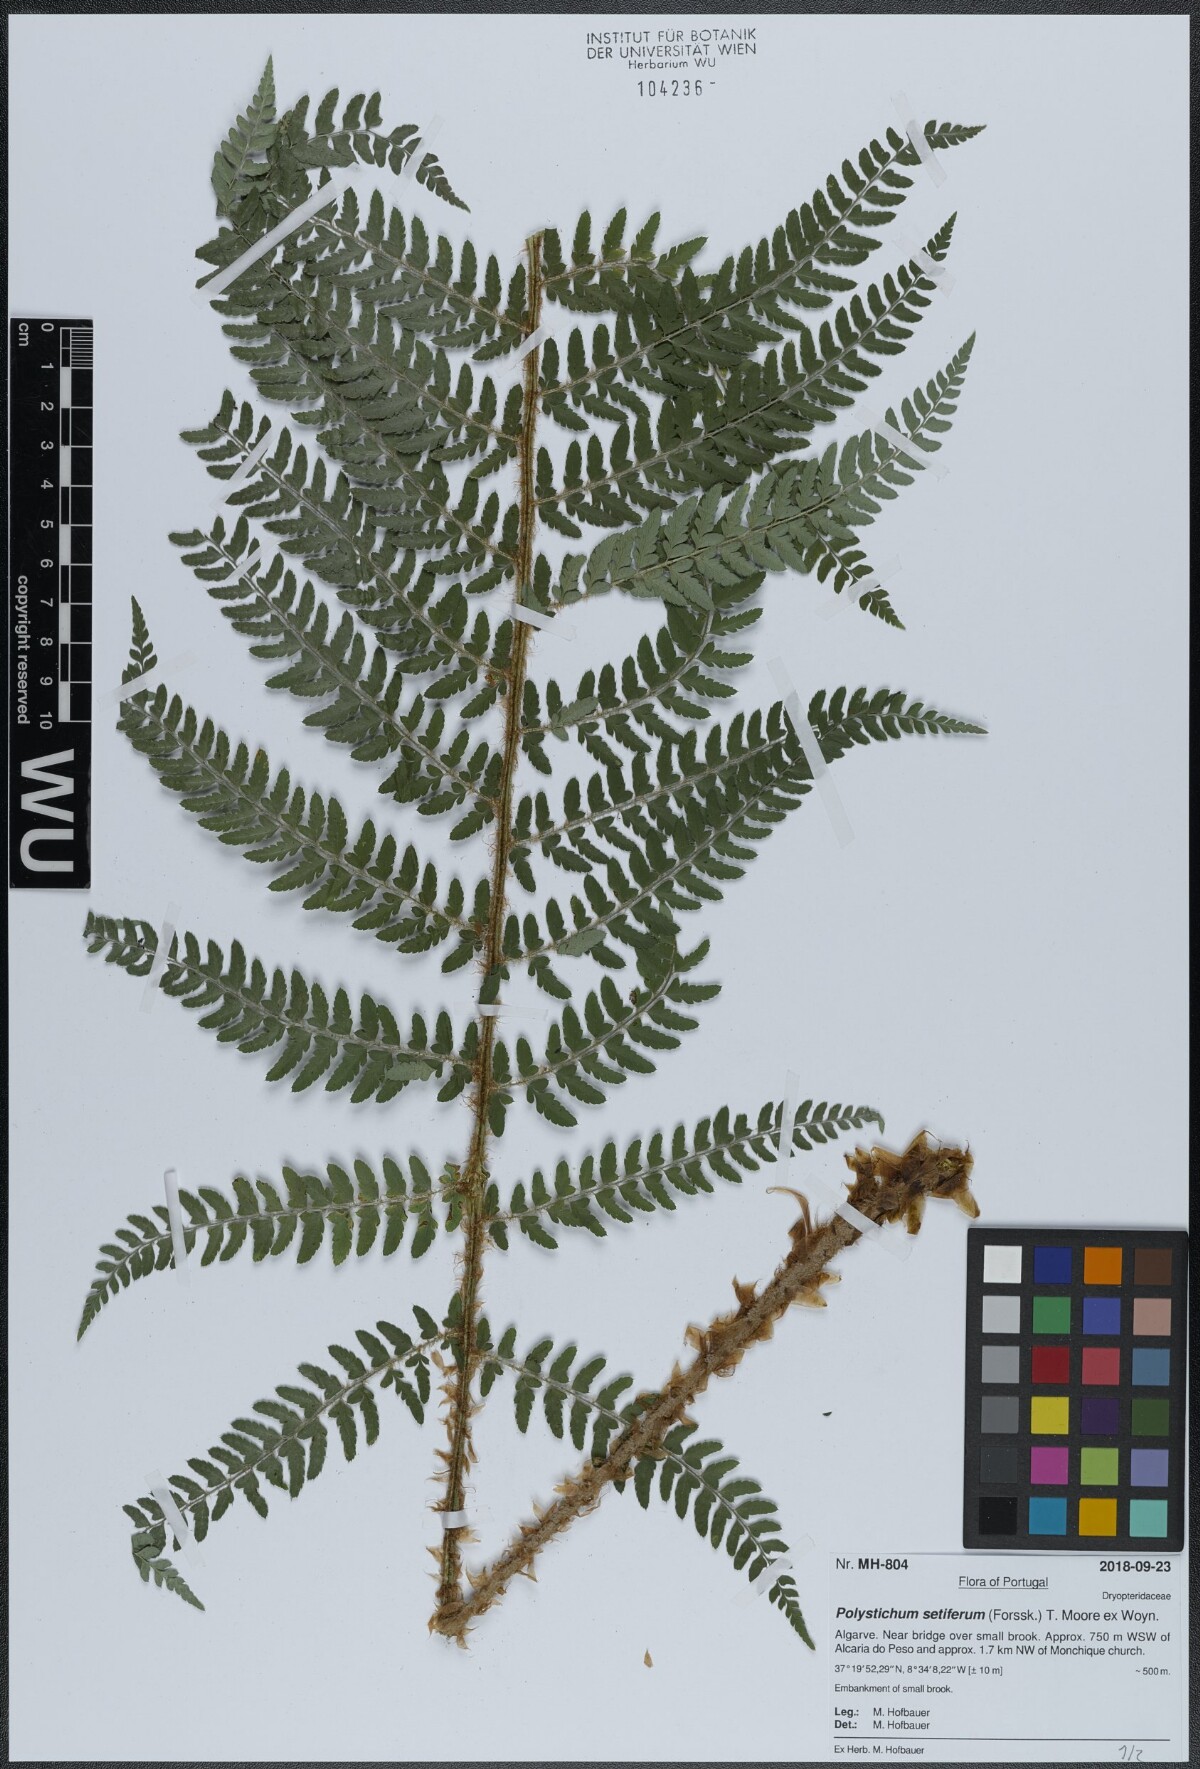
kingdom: Plantae
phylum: Tracheophyta
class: Polypodiopsida
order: Polypodiales
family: Dryopteridaceae
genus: Polystichum
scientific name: Polystichum setiferum
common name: Soft shield-fern
